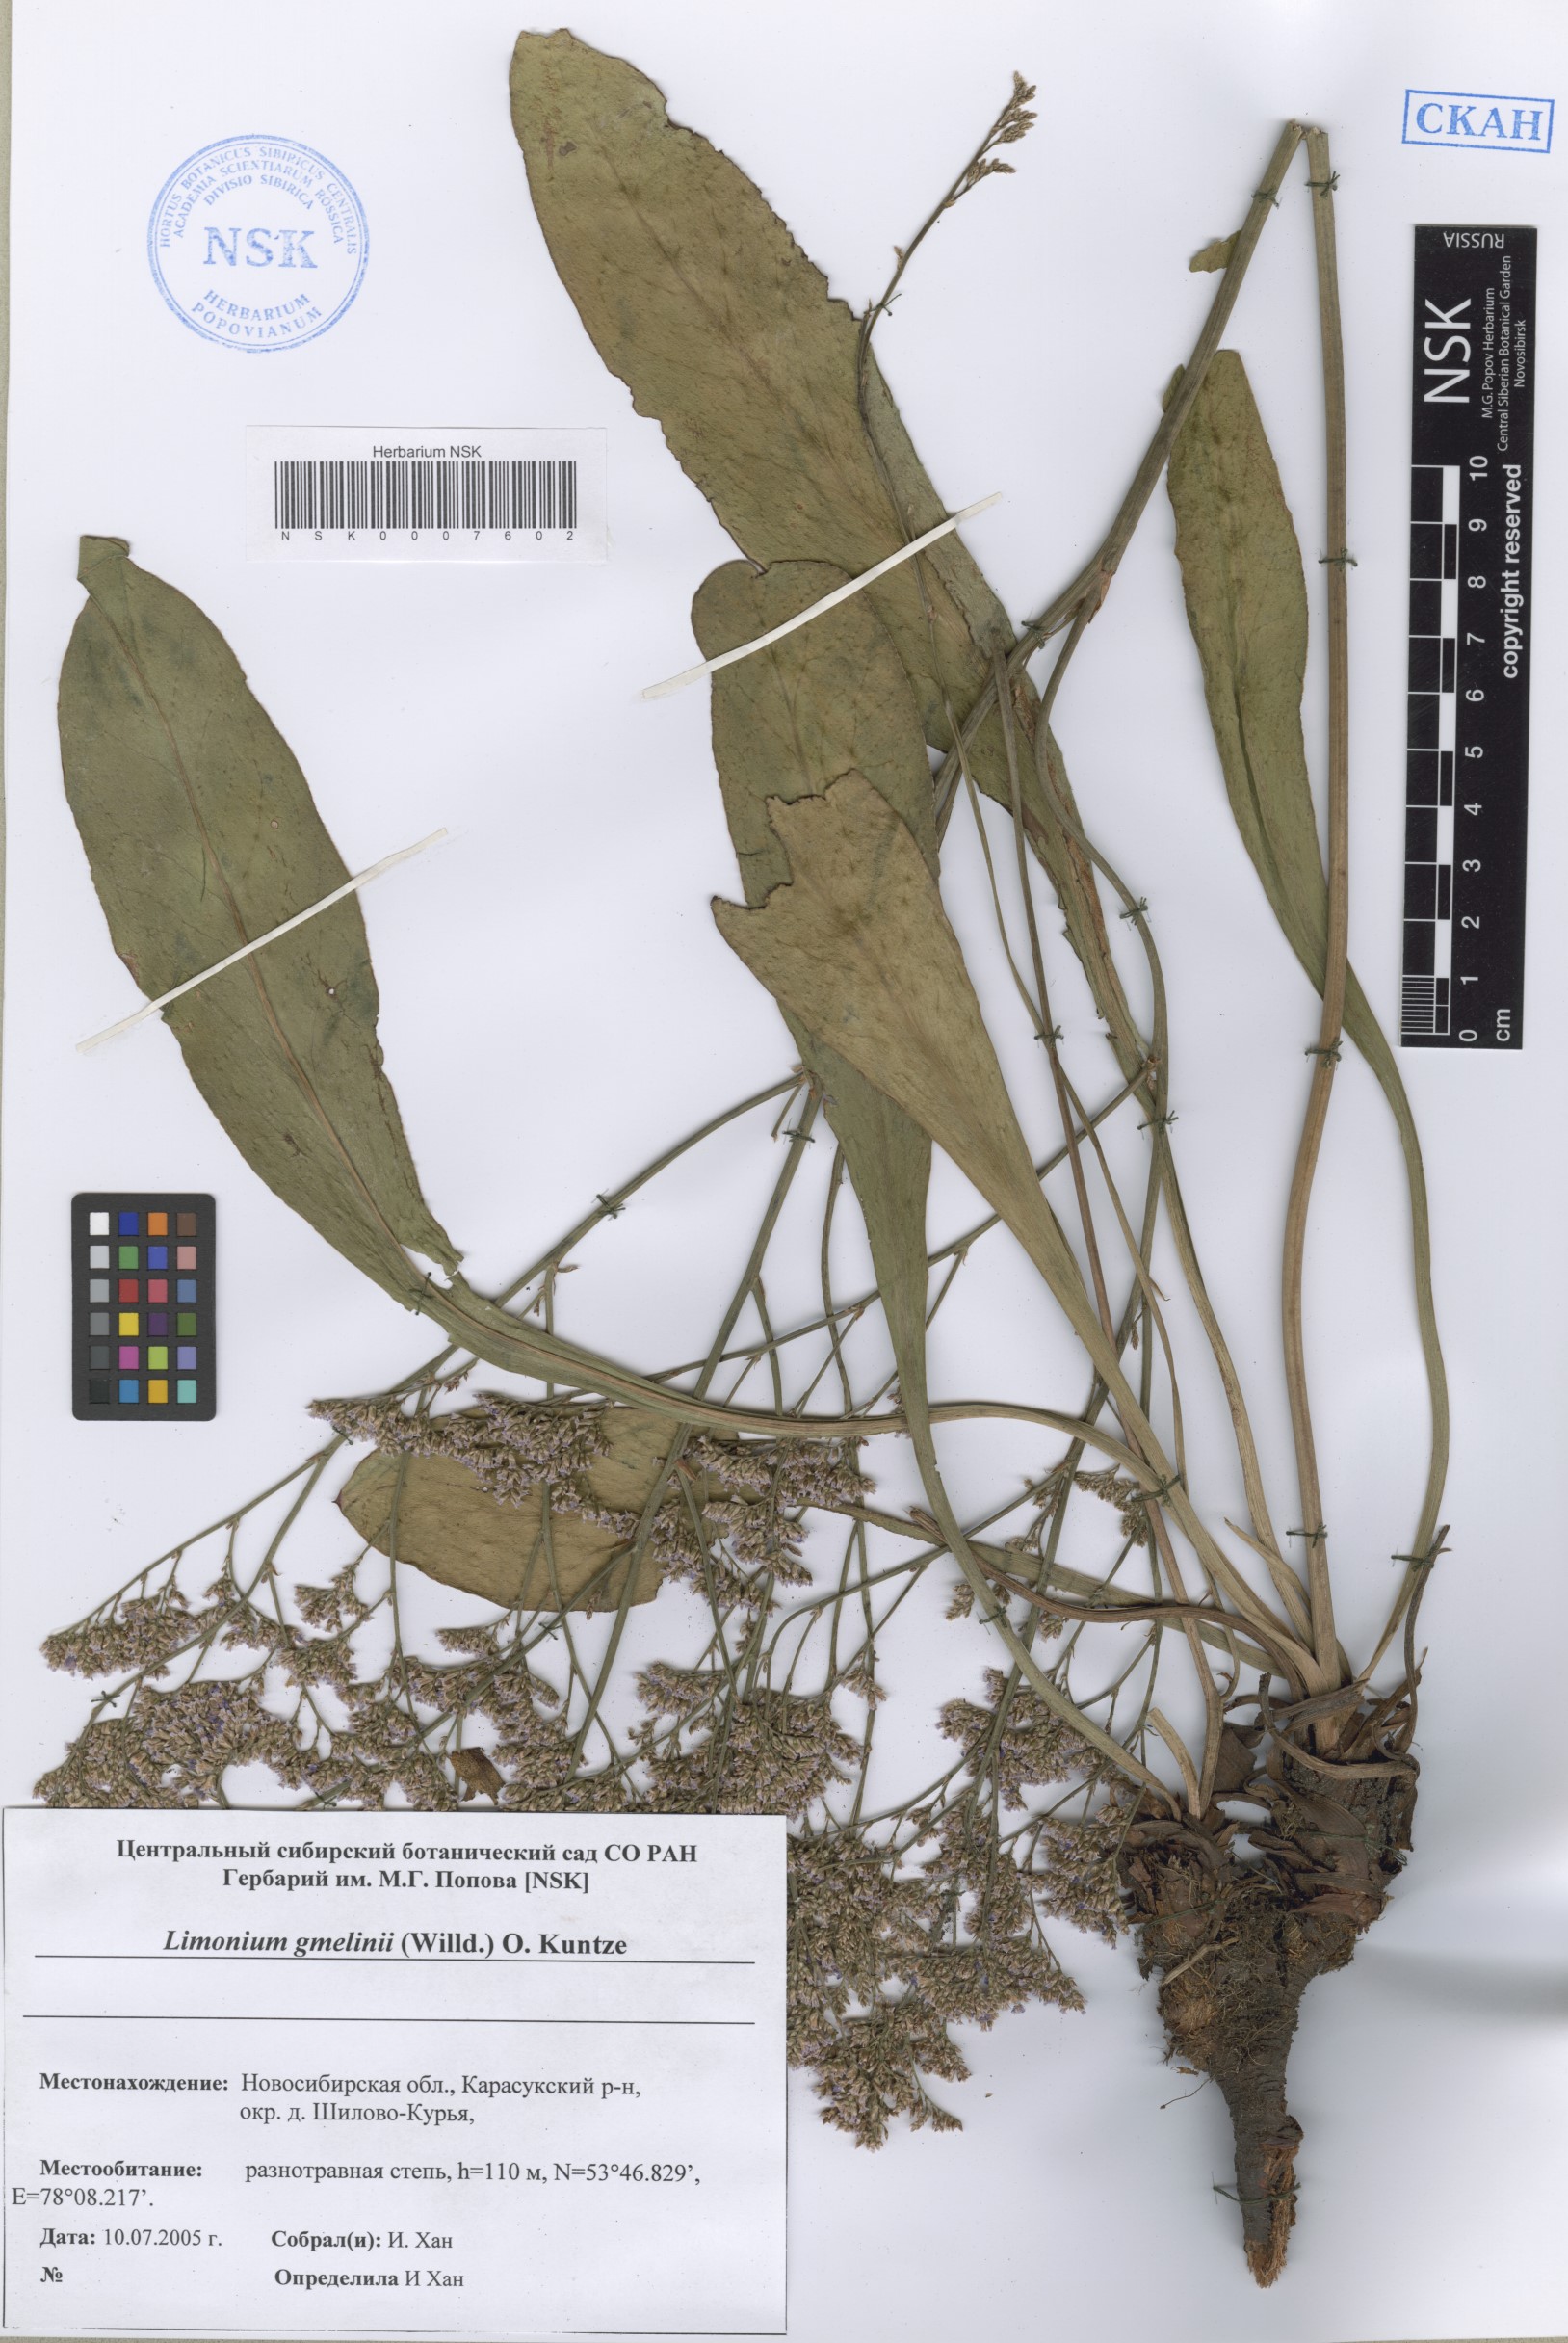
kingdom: Plantae
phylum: Tracheophyta
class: Magnoliopsida
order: Caryophyllales
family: Plumbaginaceae
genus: Limonium
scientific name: Limonium gmelini
